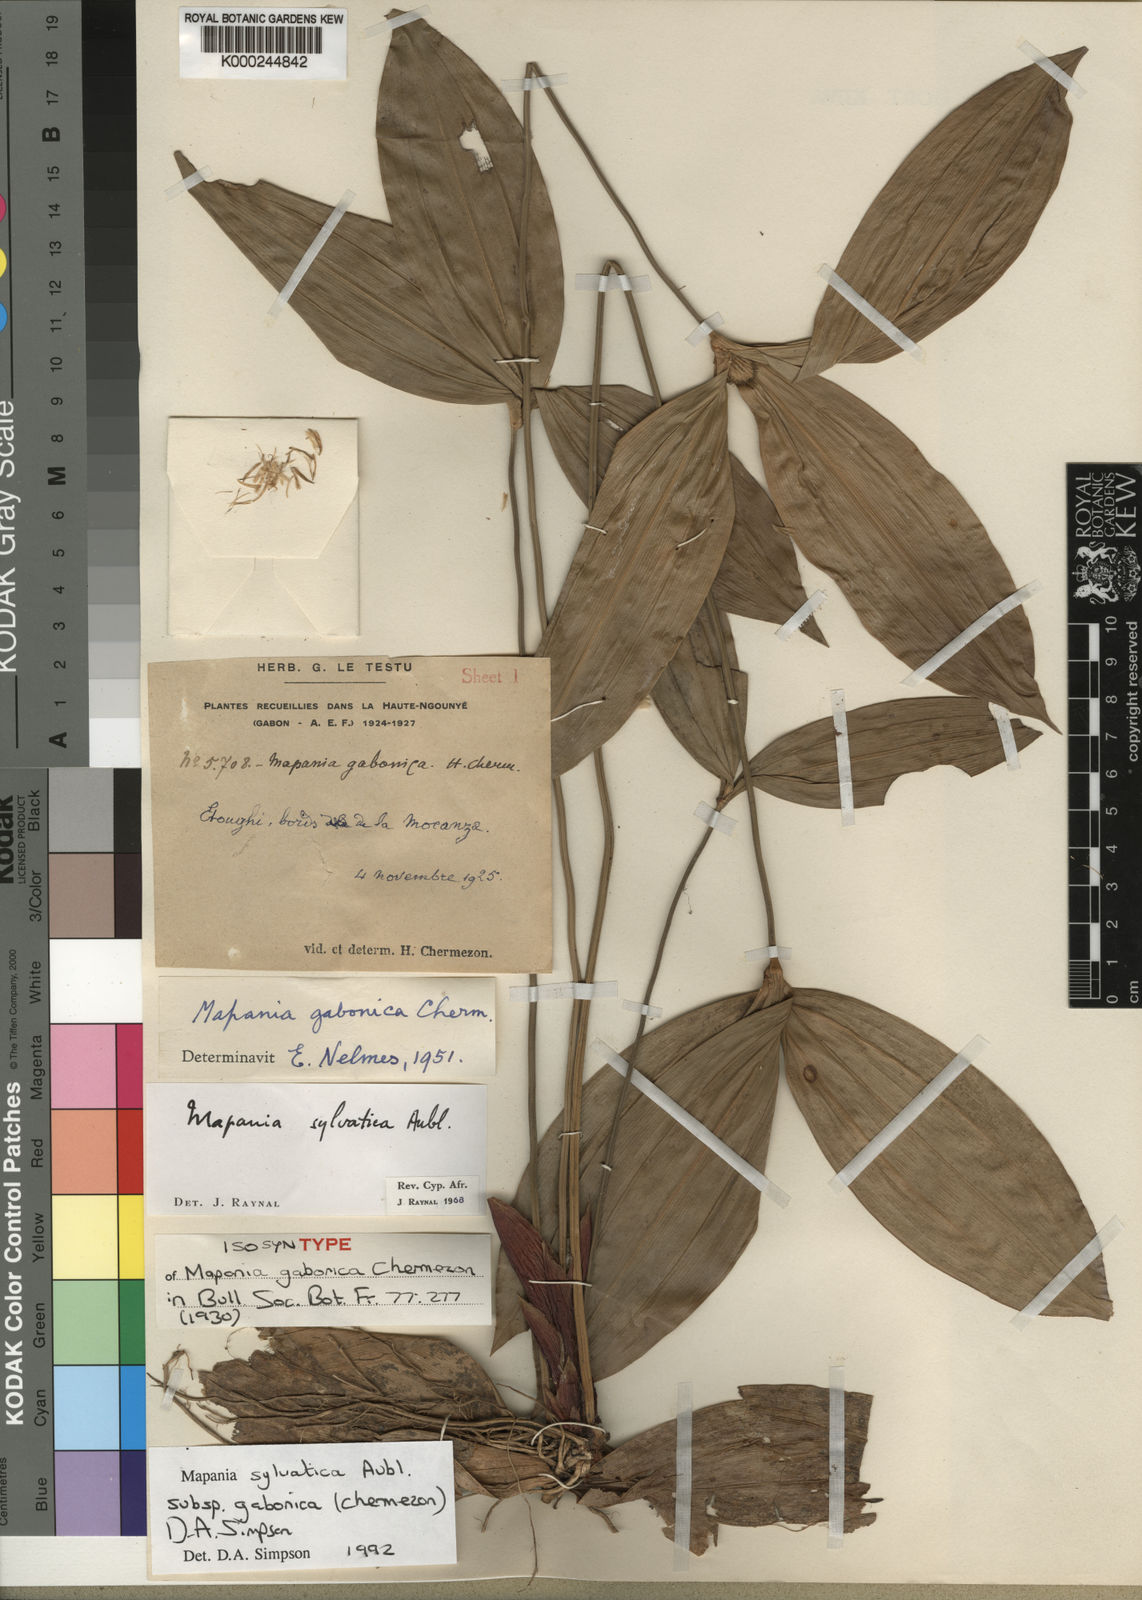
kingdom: Plantae
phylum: Tracheophyta
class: Liliopsida
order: Poales
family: Cyperaceae
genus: Mapania
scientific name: Mapania sylvatica
